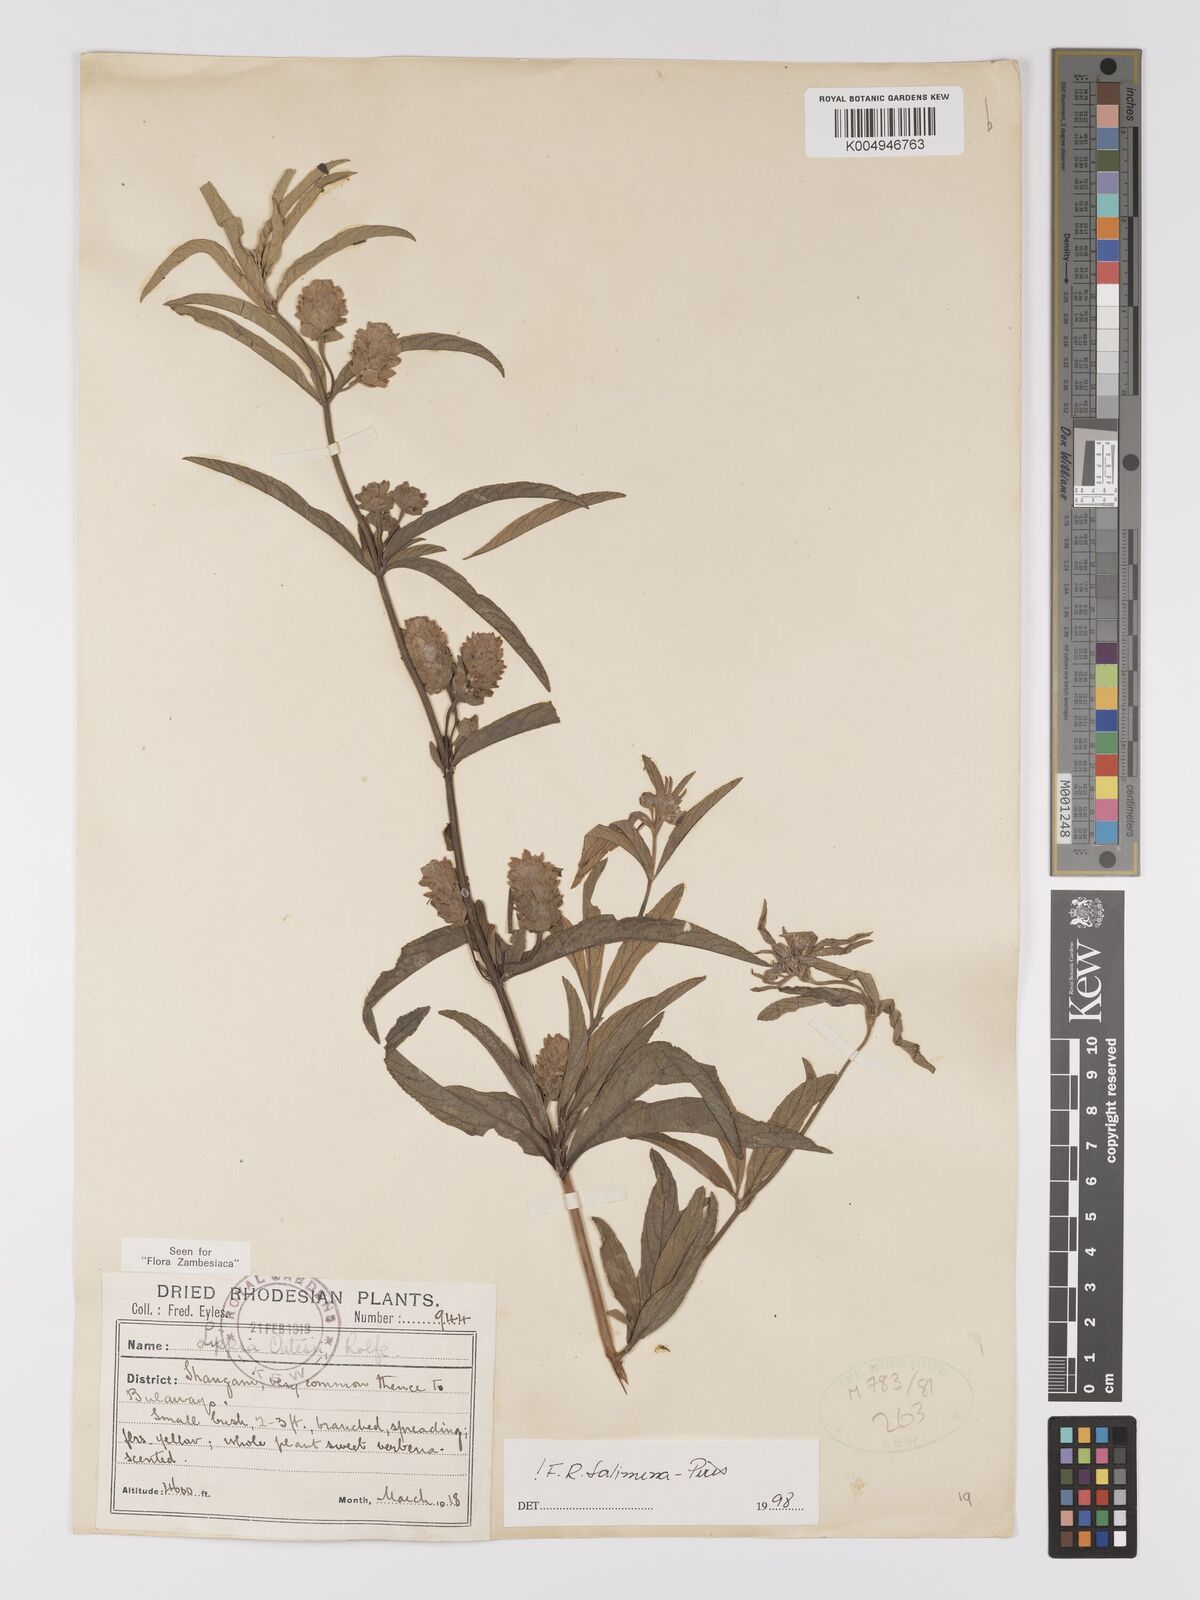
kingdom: Plantae
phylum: Tracheophyta
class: Magnoliopsida
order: Lamiales
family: Verbenaceae
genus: Lippia
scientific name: Lippia oatesii
